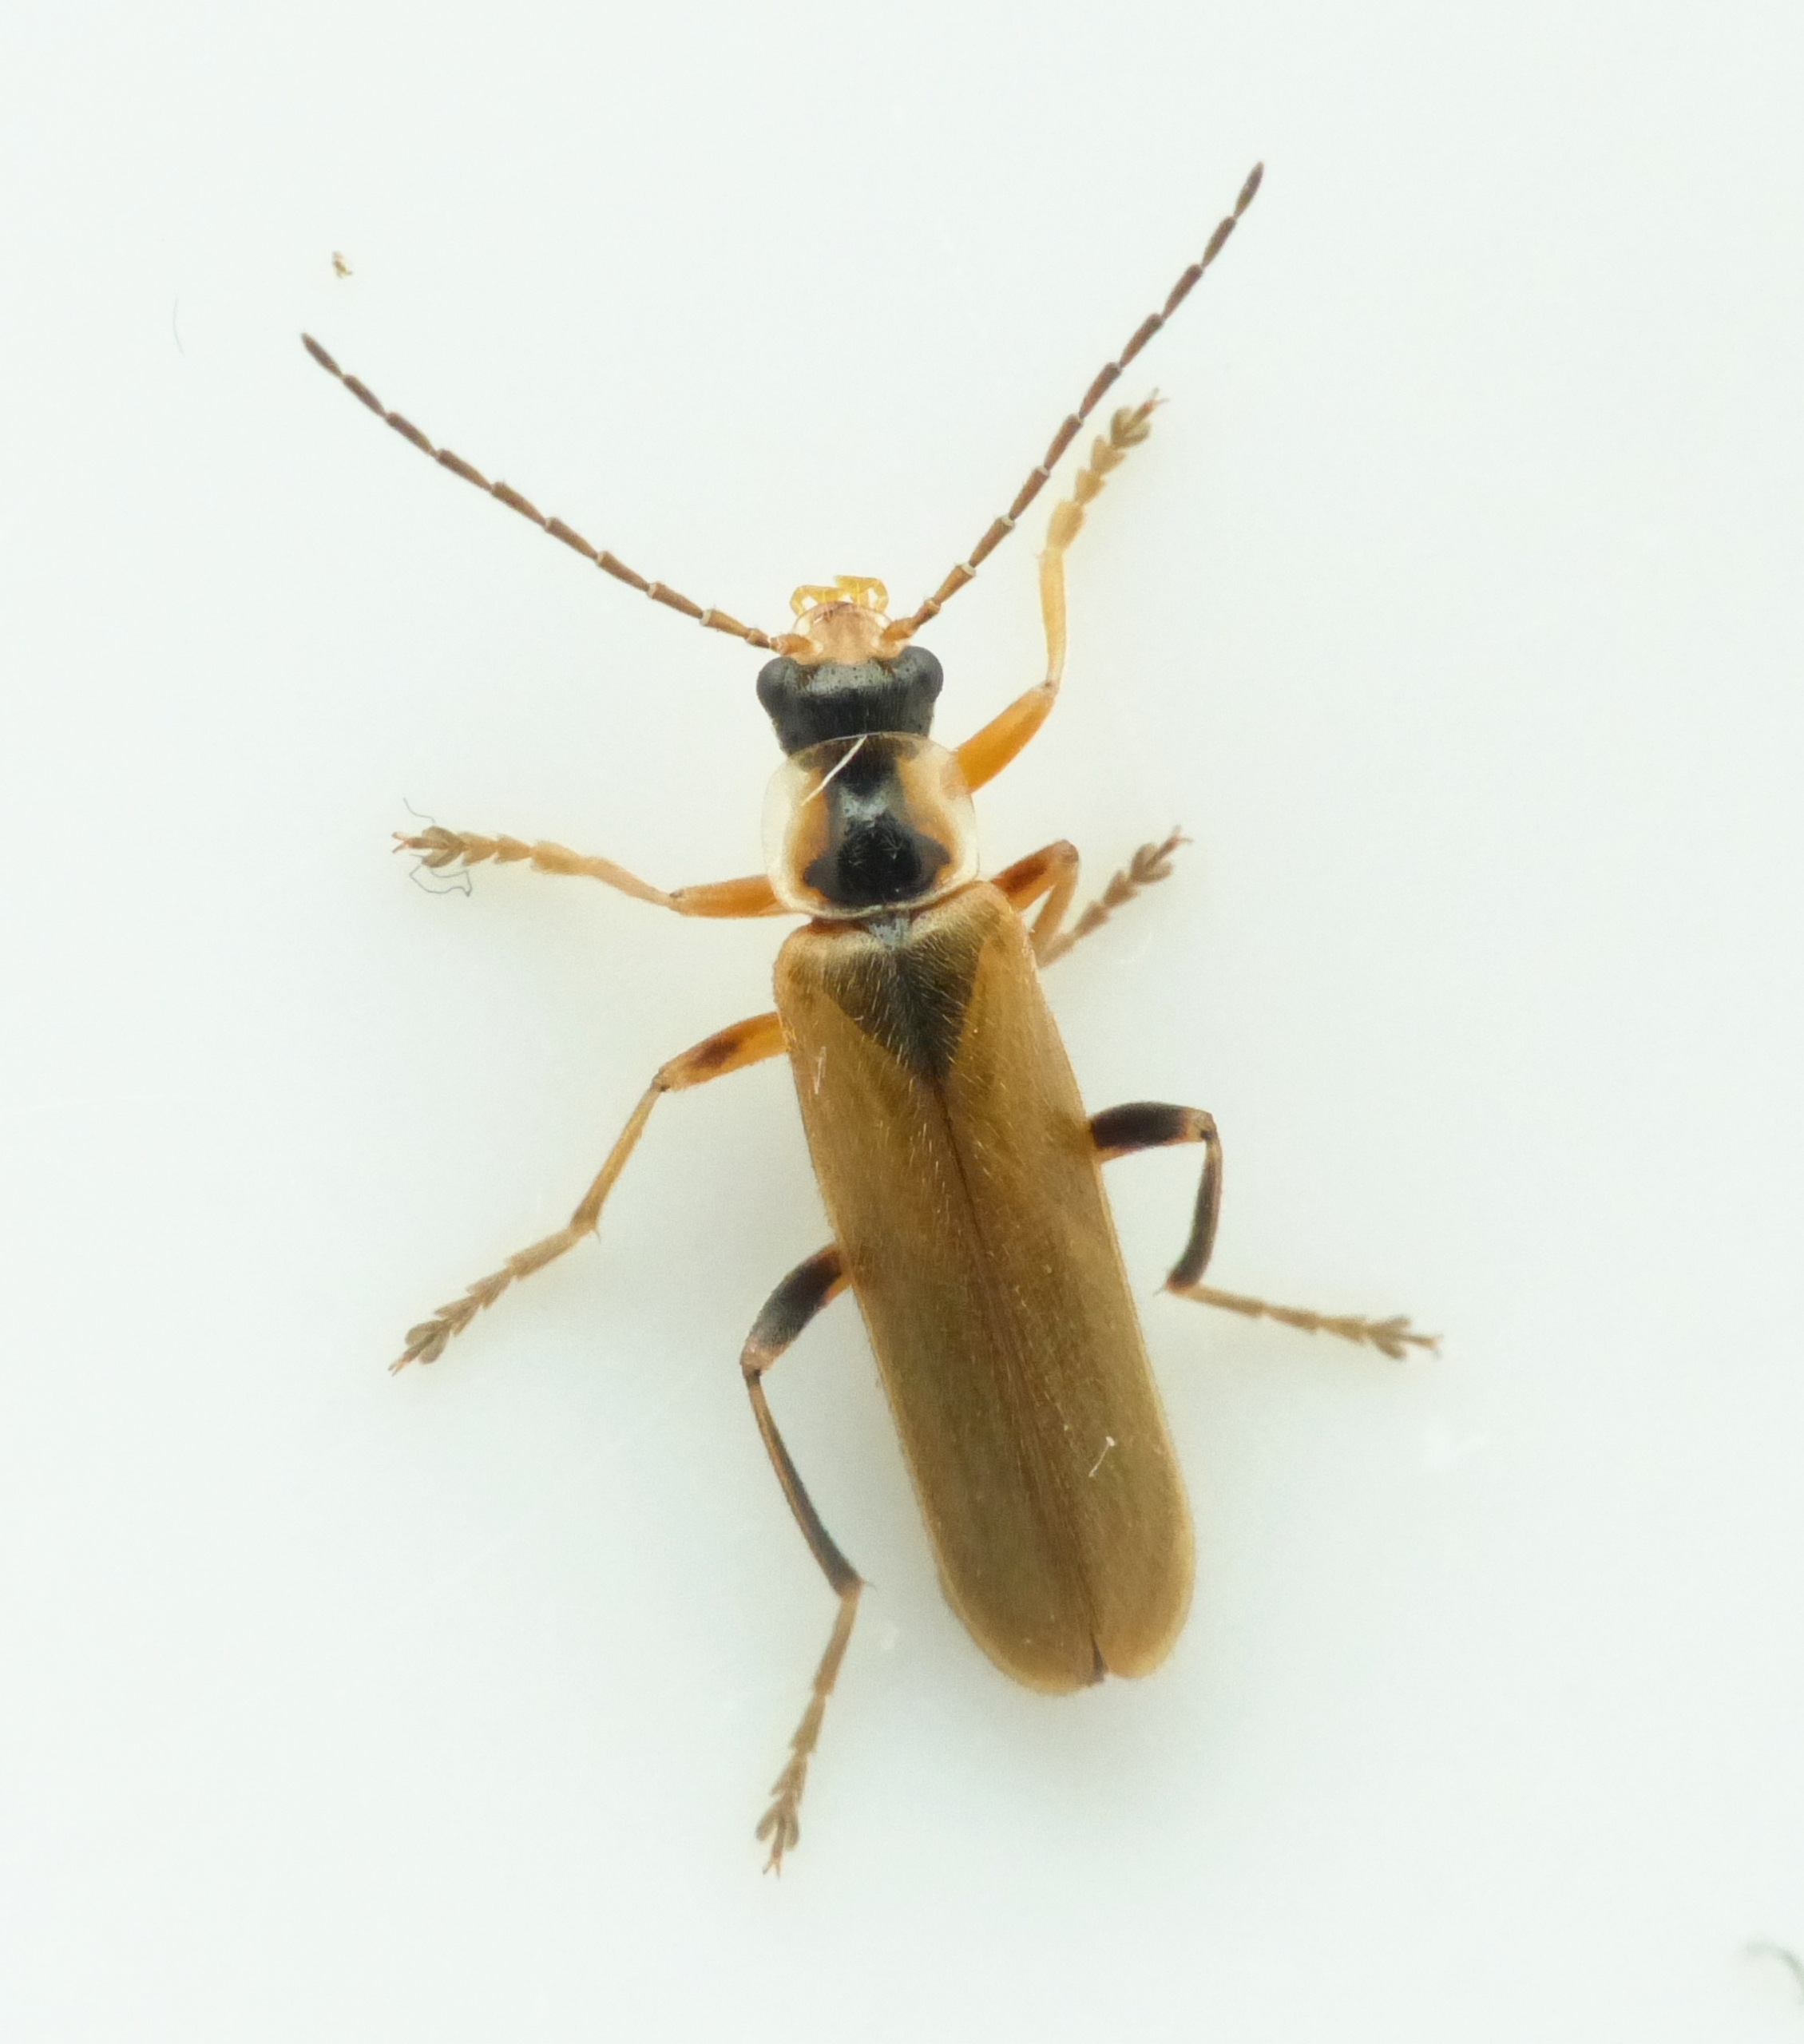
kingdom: Animalia
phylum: Arthropoda
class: Insecta
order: Coleoptera
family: Cantharidae
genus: Cantharis
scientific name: Cantharis decipiens
